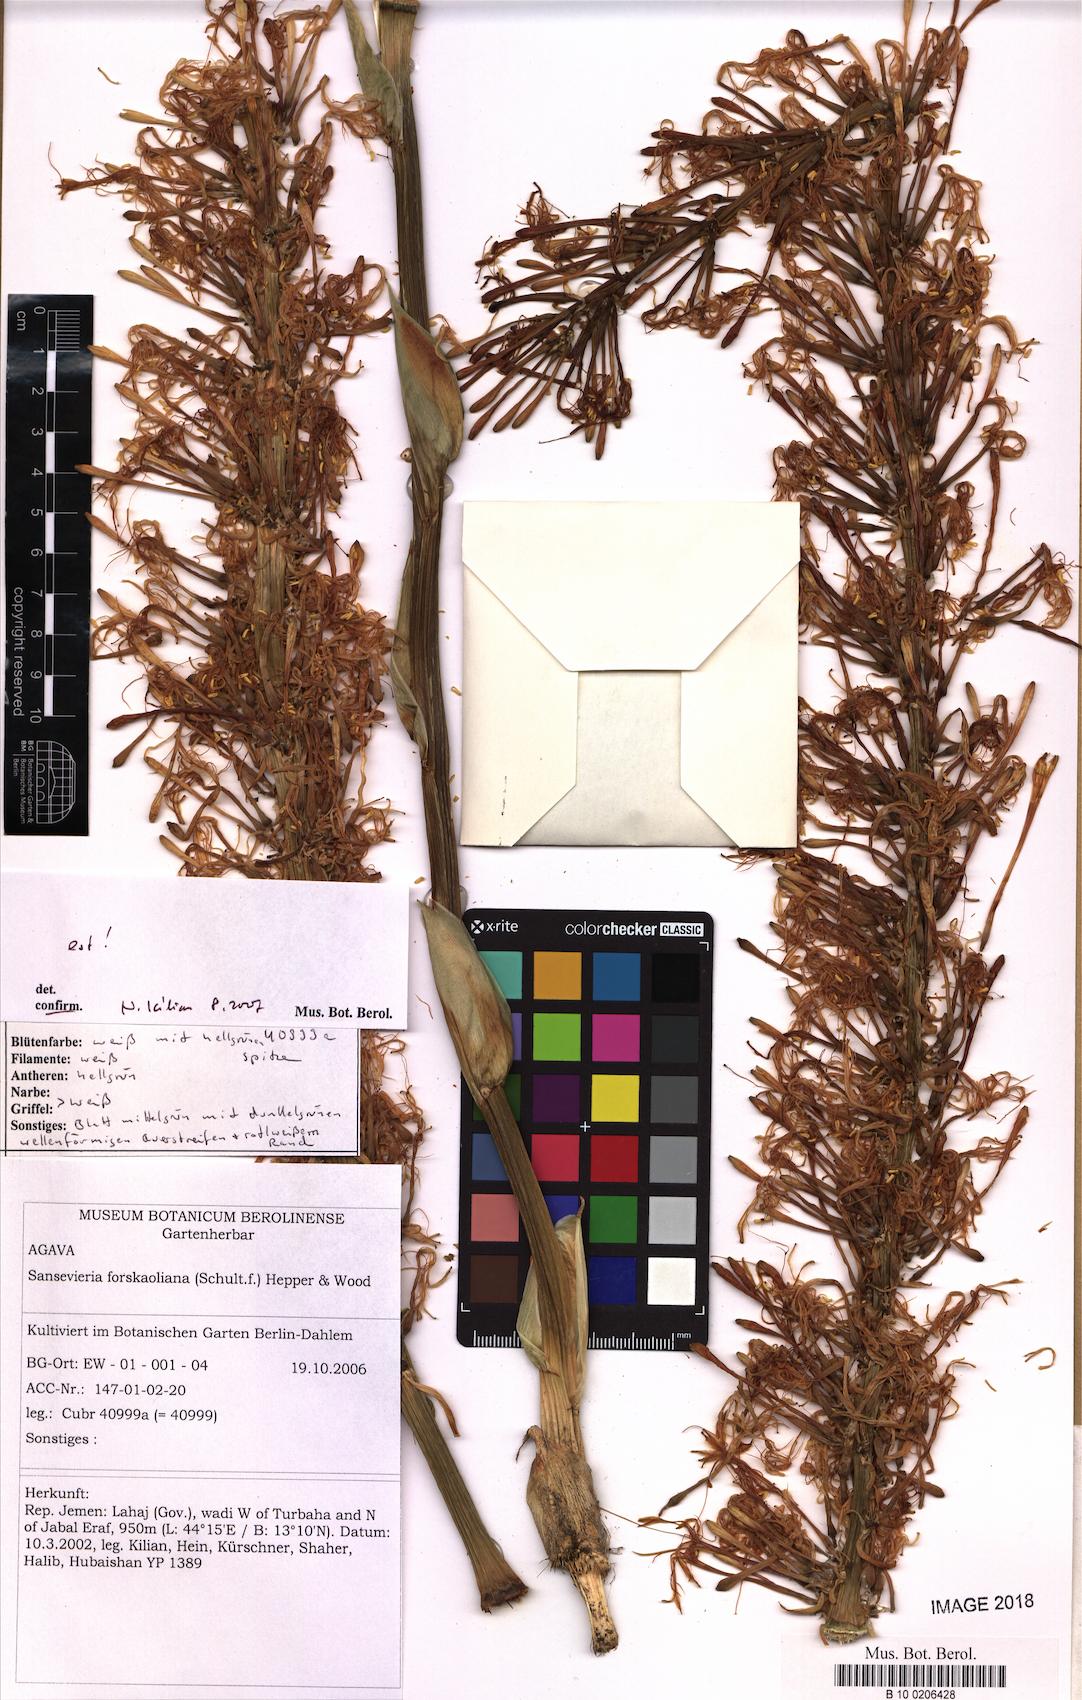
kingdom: Plantae
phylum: Tracheophyta
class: Liliopsida
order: Asparagales
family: Asparagaceae
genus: Dracaena
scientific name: Dracaena forskaliana
